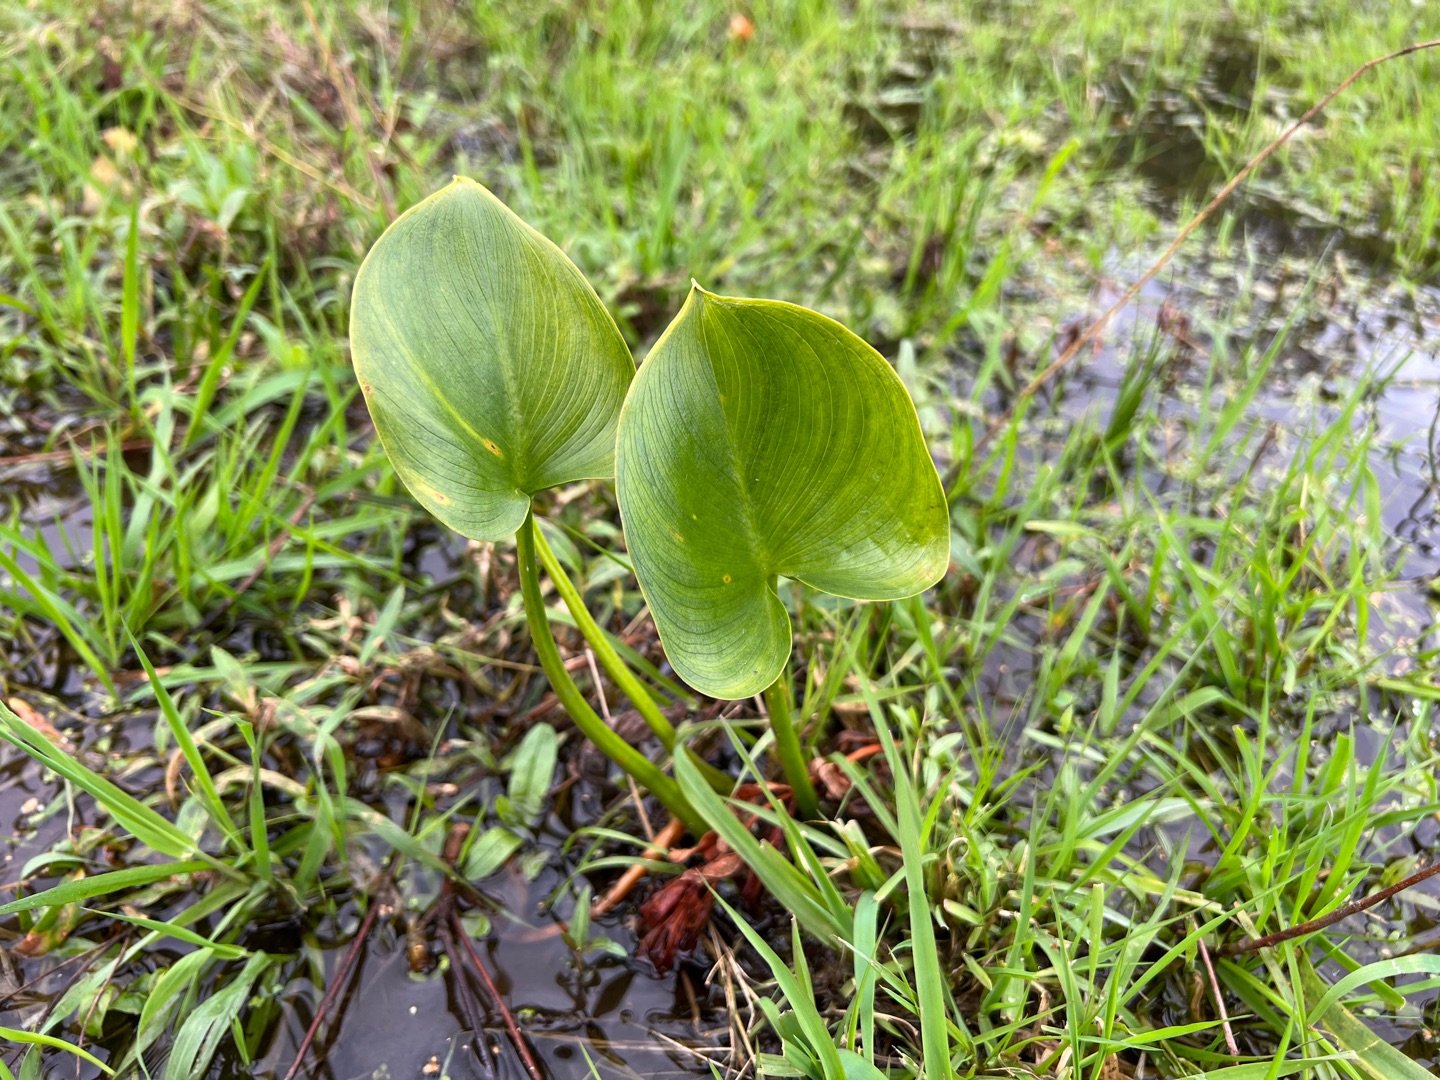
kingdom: Plantae
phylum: Tracheophyta
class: Liliopsida
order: Alismatales
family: Araceae
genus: Calla
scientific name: Calla palustris
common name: Kærmysse
